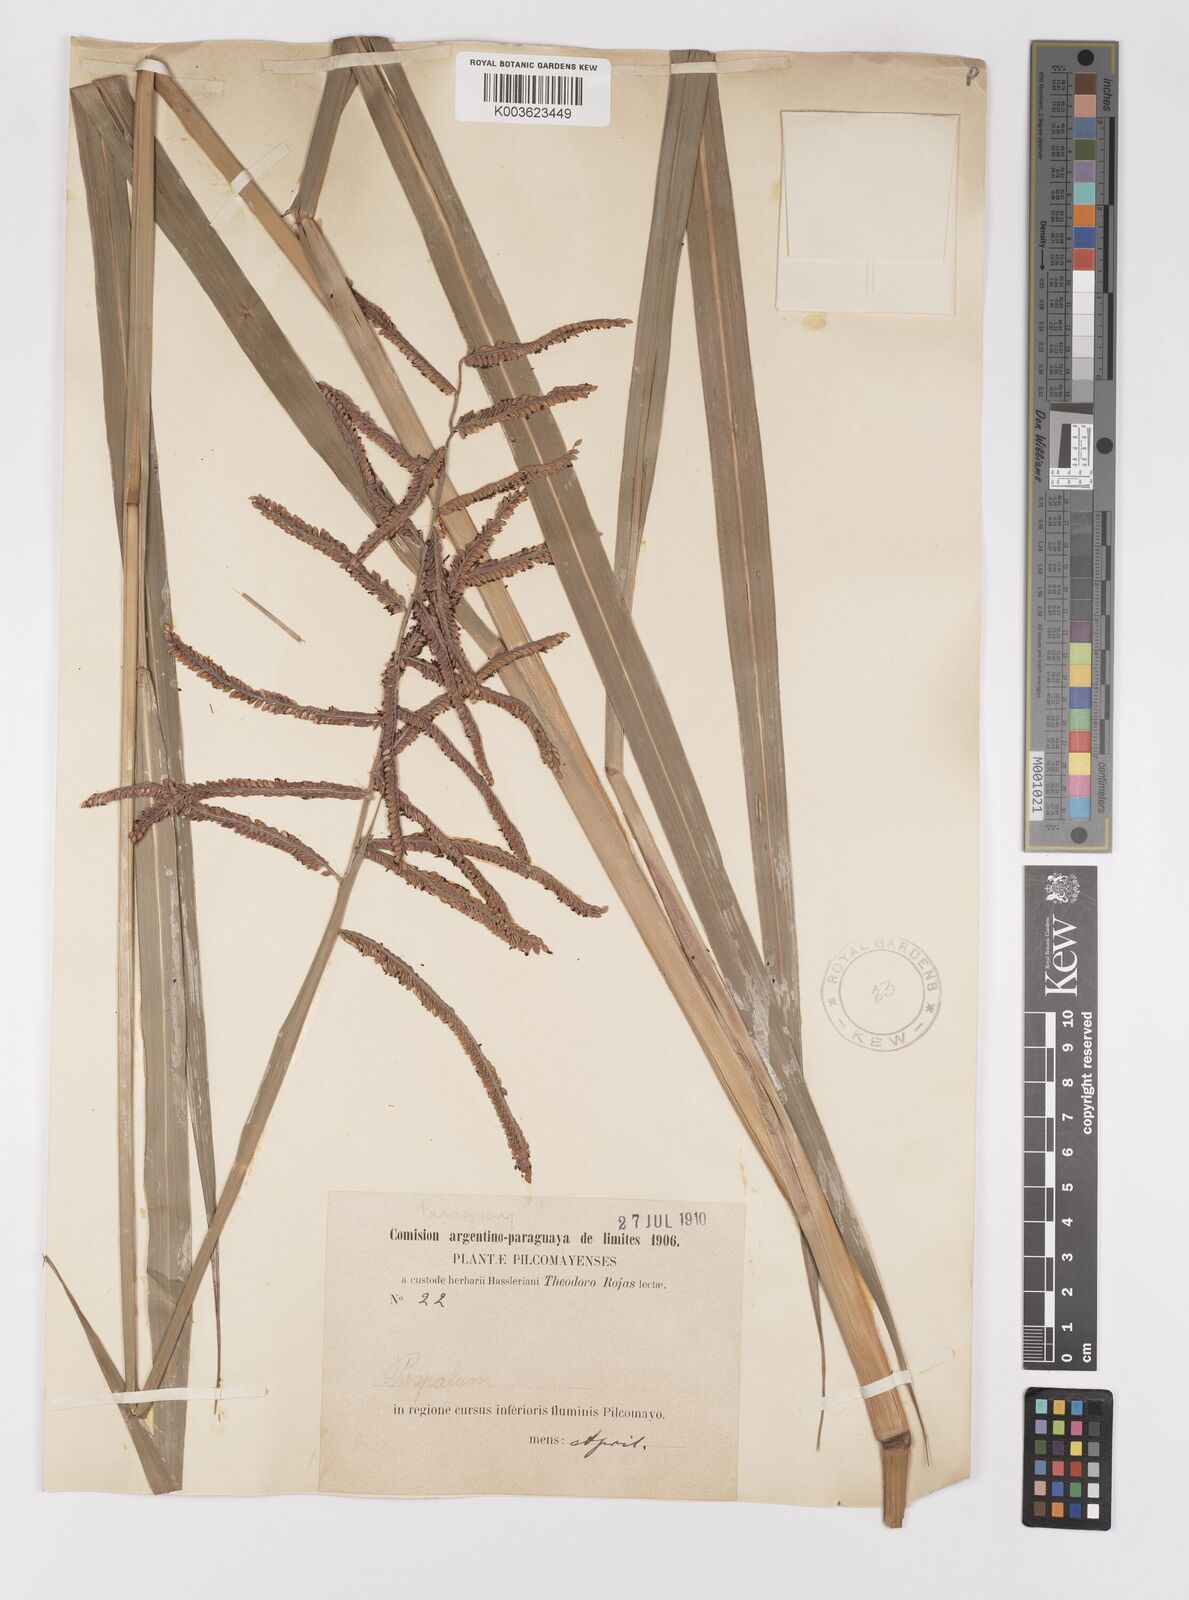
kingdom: Plantae
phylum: Tracheophyta
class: Liliopsida
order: Poales
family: Poaceae
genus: Paspalum
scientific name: Paspalum conspersum
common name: Scattered paspalum
